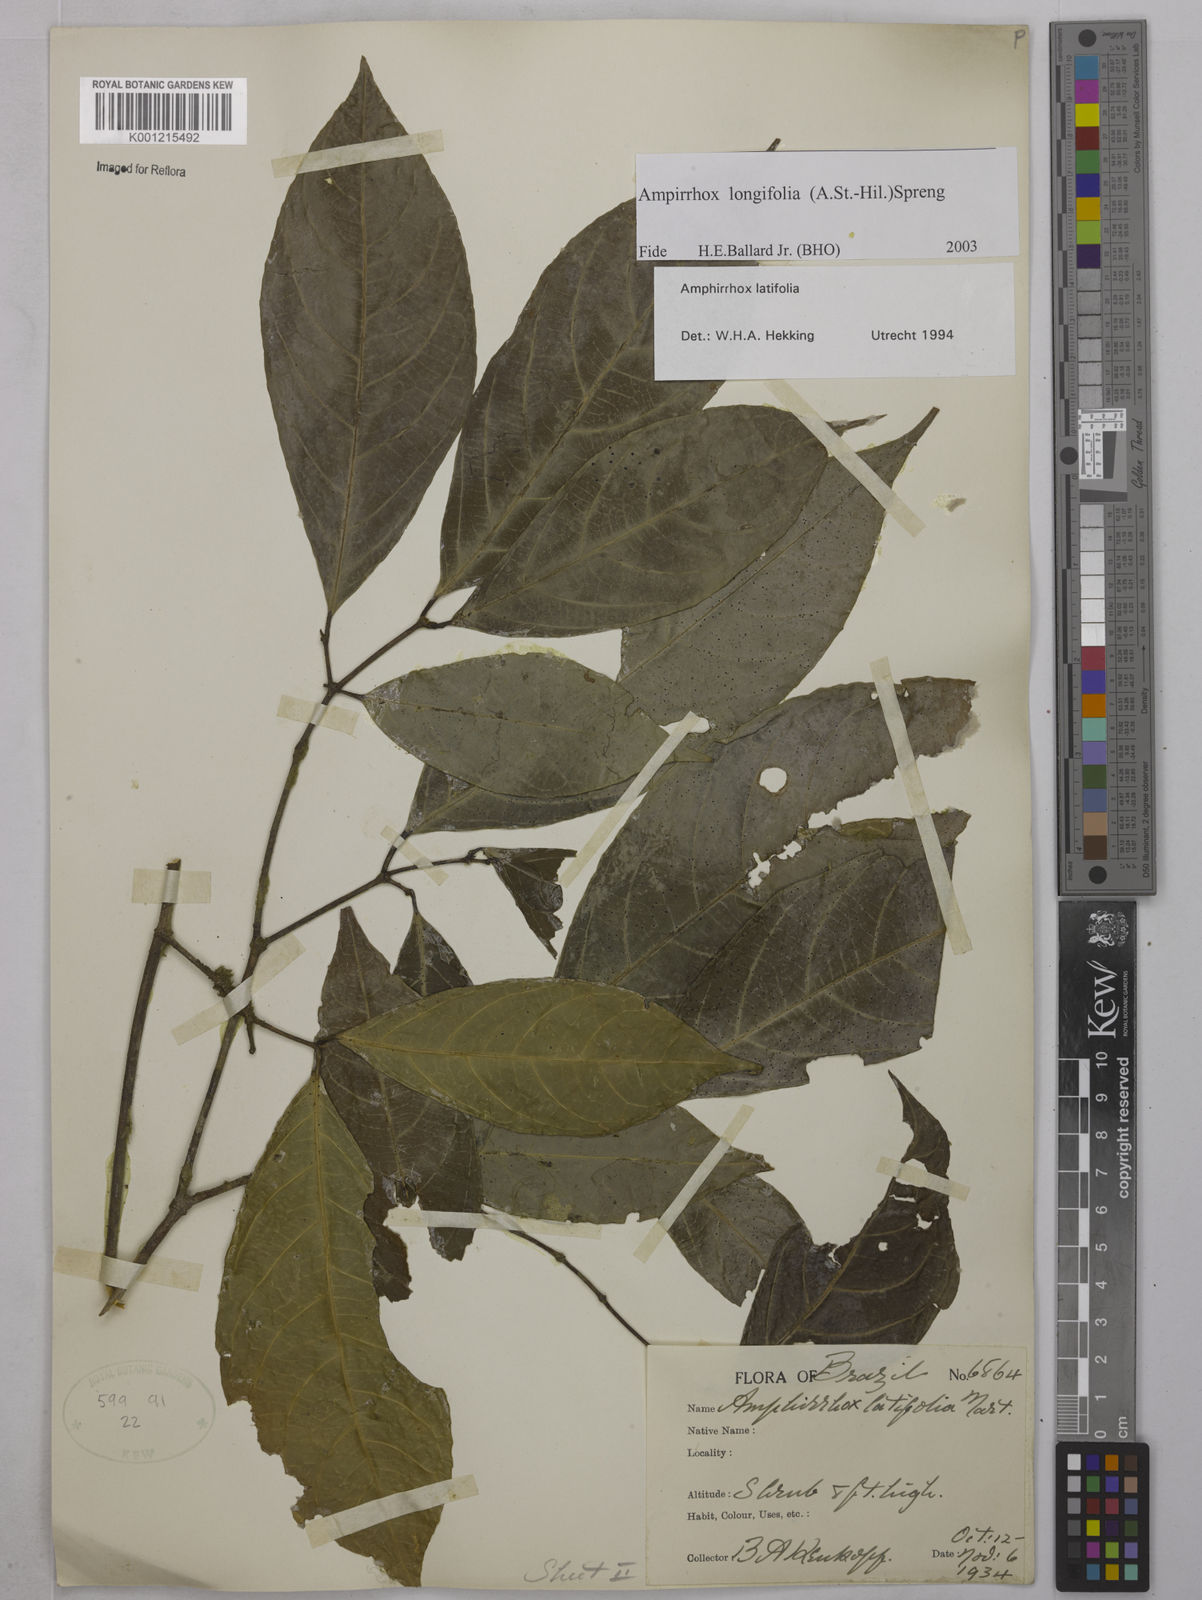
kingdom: Plantae
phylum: Tracheophyta
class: Magnoliopsida
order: Malpighiales
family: Violaceae
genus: Amphirrhox
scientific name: Amphirrhox longifolia
